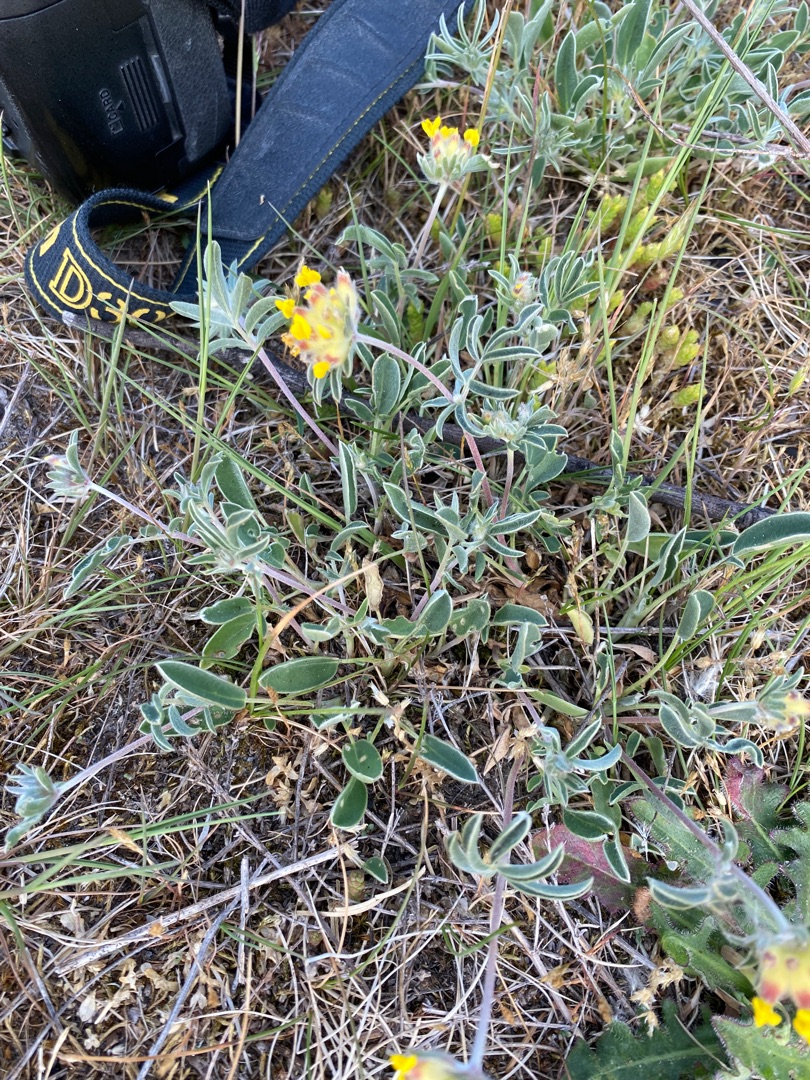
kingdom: Plantae
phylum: Tracheophyta
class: Magnoliopsida
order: Fabales
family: Fabaceae
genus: Anthyllis
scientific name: Anthyllis vulneraria
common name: Rundbælg
